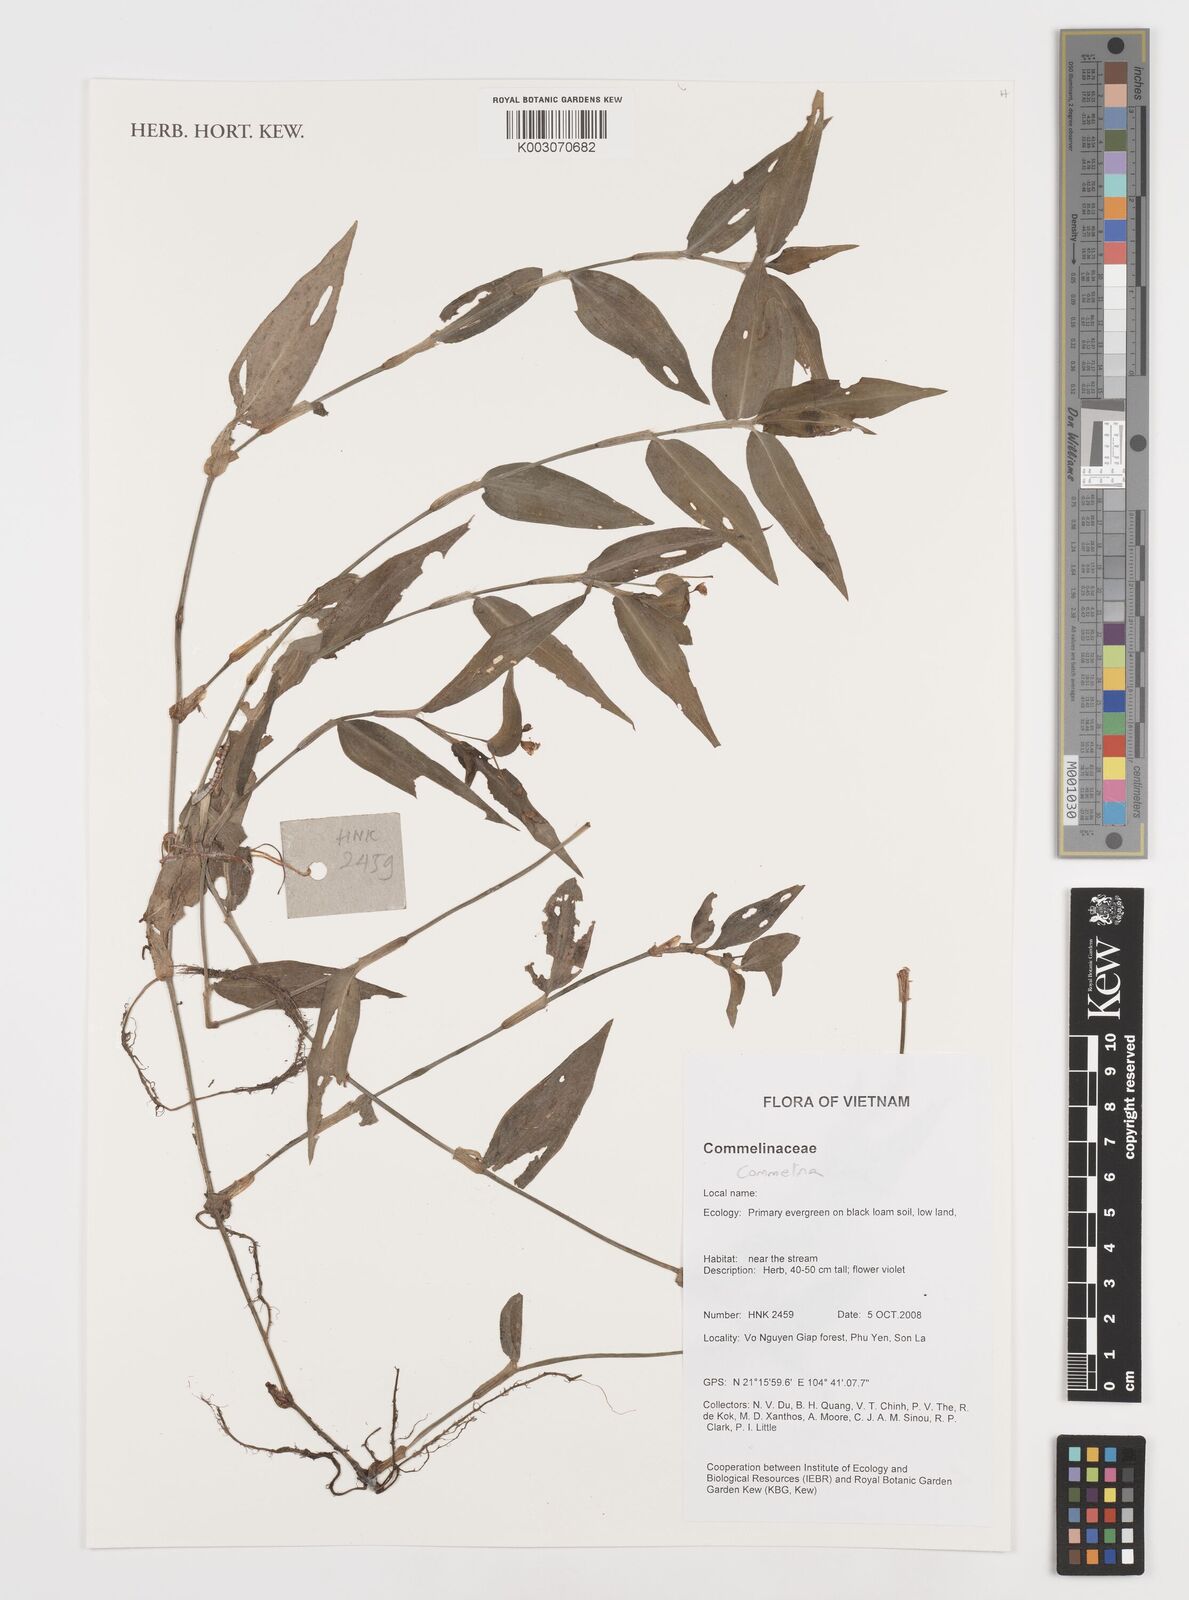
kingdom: Plantae
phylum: Tracheophyta
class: Liliopsida
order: Commelinales
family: Commelinaceae
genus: Commelina
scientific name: Commelina
